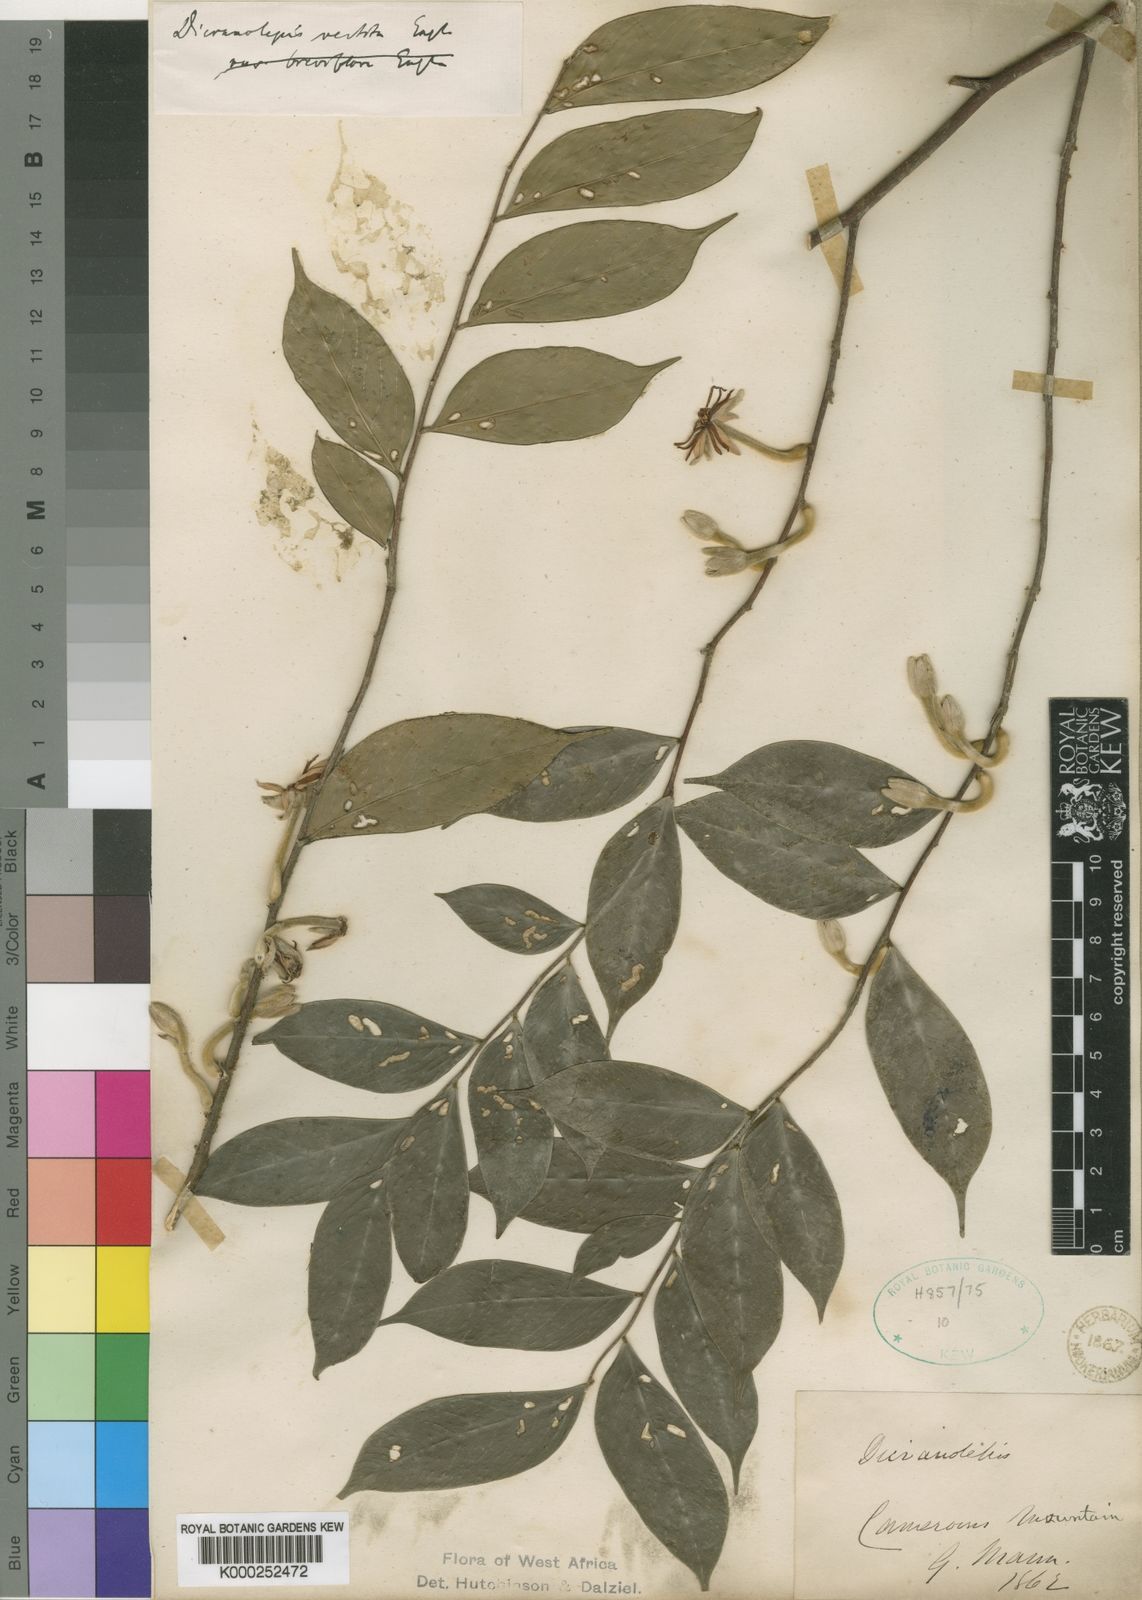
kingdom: Plantae
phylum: Tracheophyta
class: Magnoliopsida
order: Malvales
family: Thymelaeaceae
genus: Dicranolepis
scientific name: Dicranolepis vestita
